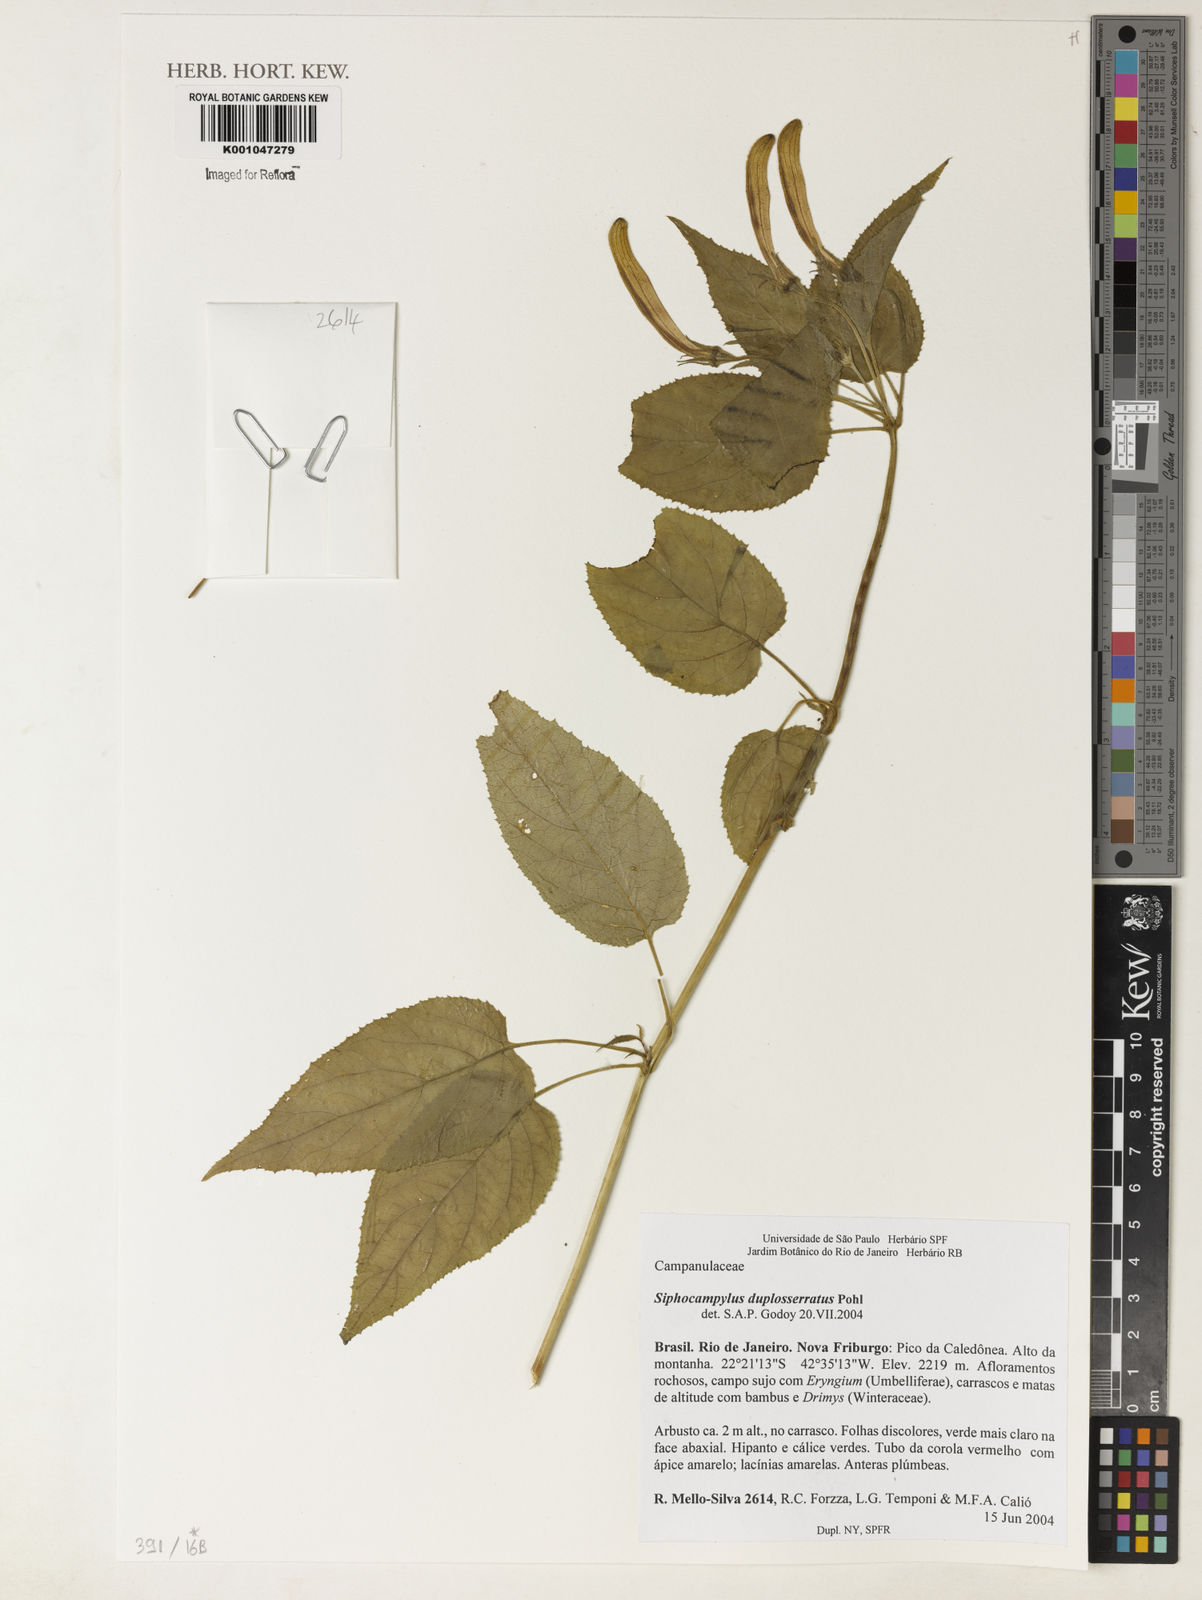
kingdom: Plantae
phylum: Tracheophyta
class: Magnoliopsida
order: Asterales
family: Campanulaceae
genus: Siphocampylus
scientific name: Siphocampylus duploserratus
